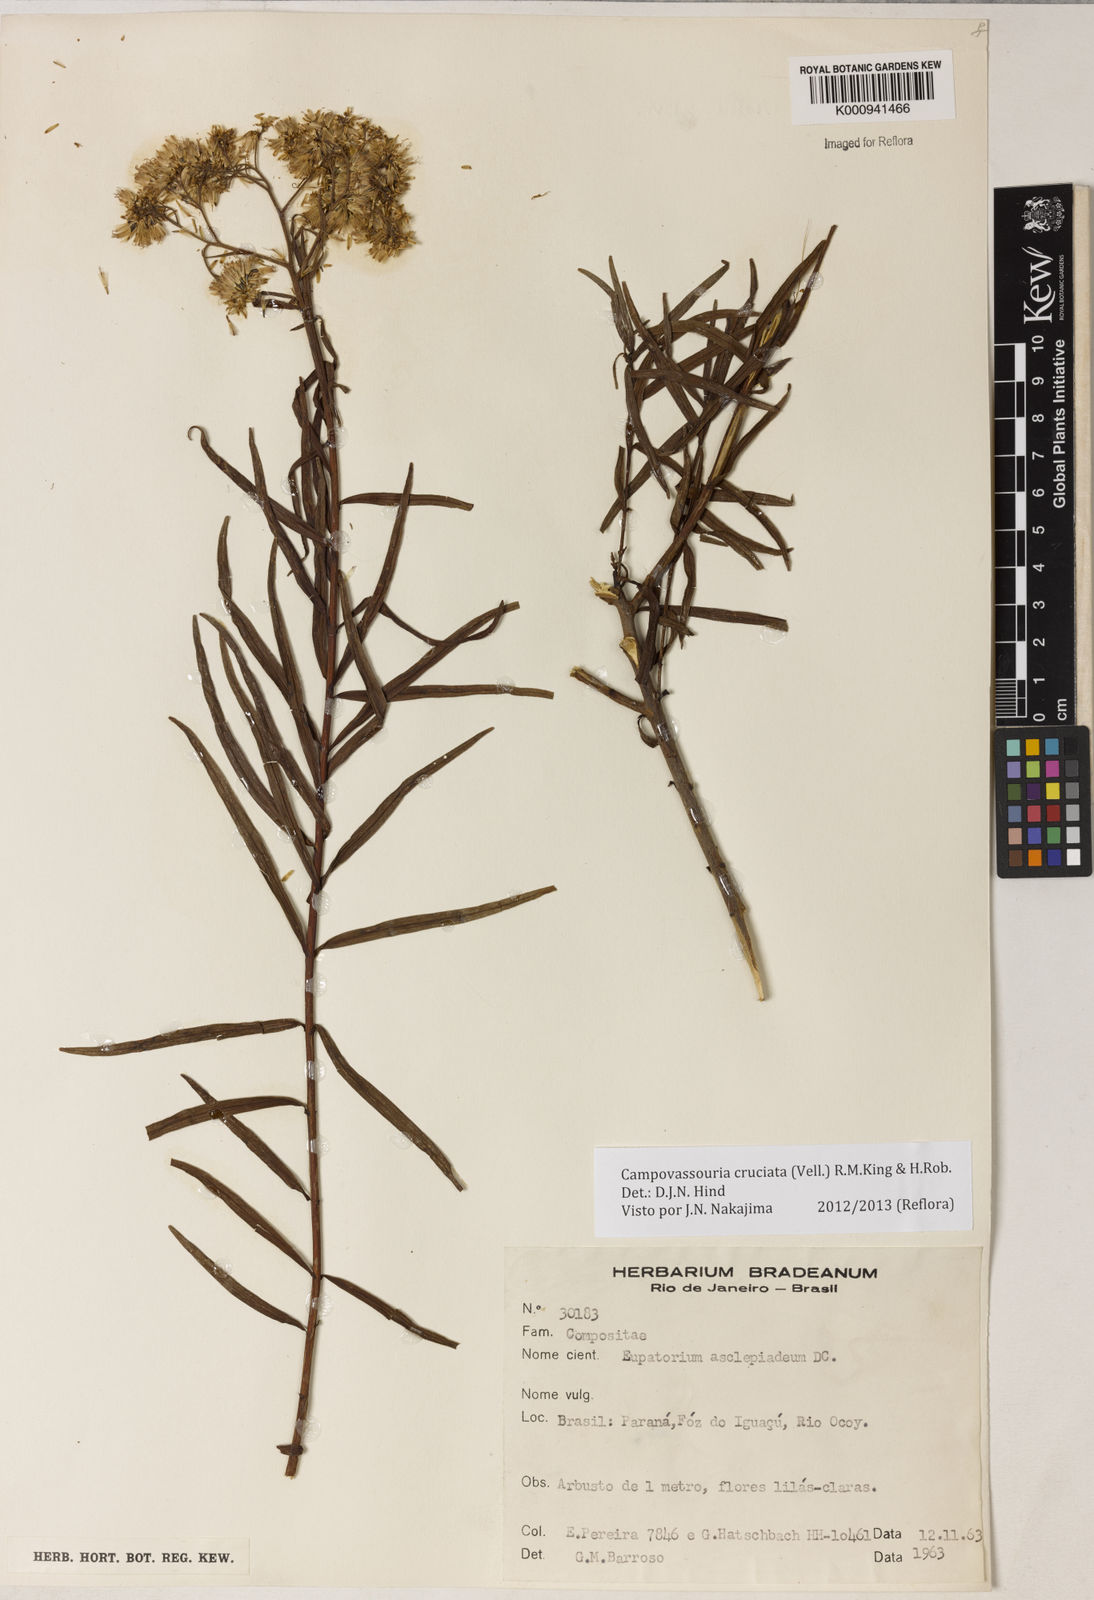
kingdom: Plantae
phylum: Tracheophyta
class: Magnoliopsida
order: Asterales
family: Asteraceae
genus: Campovassouria
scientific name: Campovassouria cruciata
